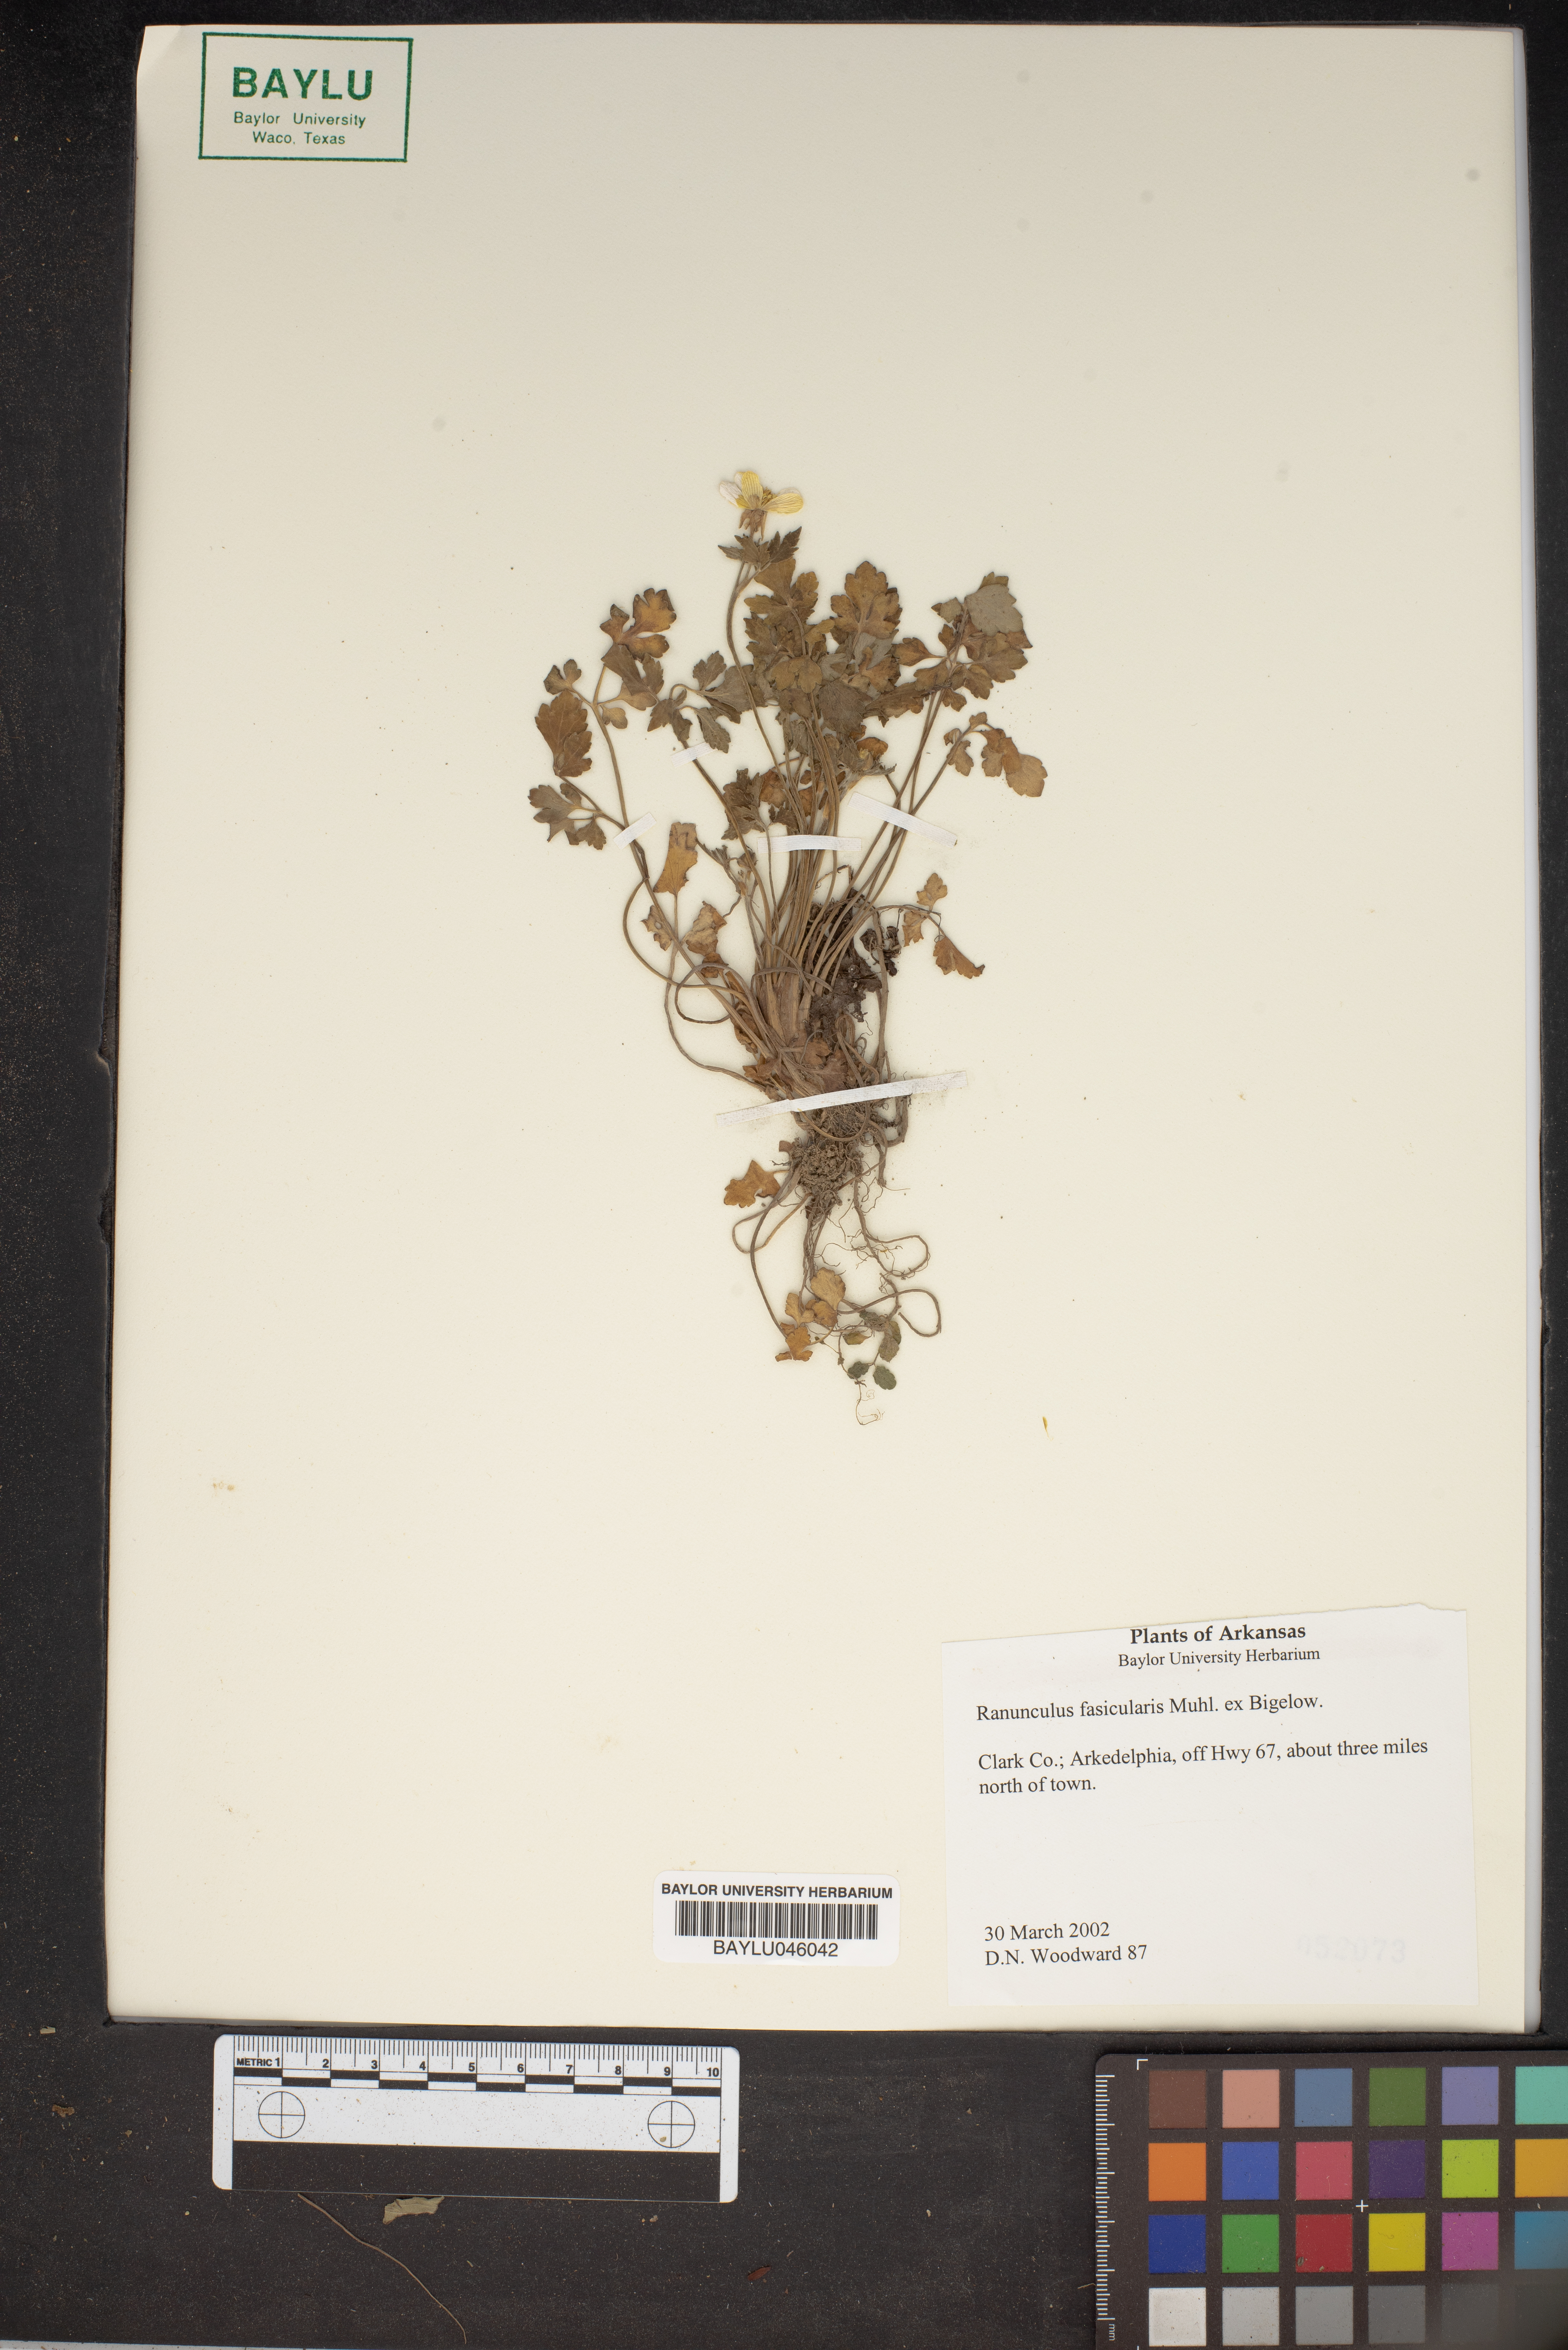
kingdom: Plantae
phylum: Tracheophyta
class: Magnoliopsida
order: Ranunculales
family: Ranunculaceae
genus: Ranunculus
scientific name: Ranunculus fascicularis
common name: Early buttercup
